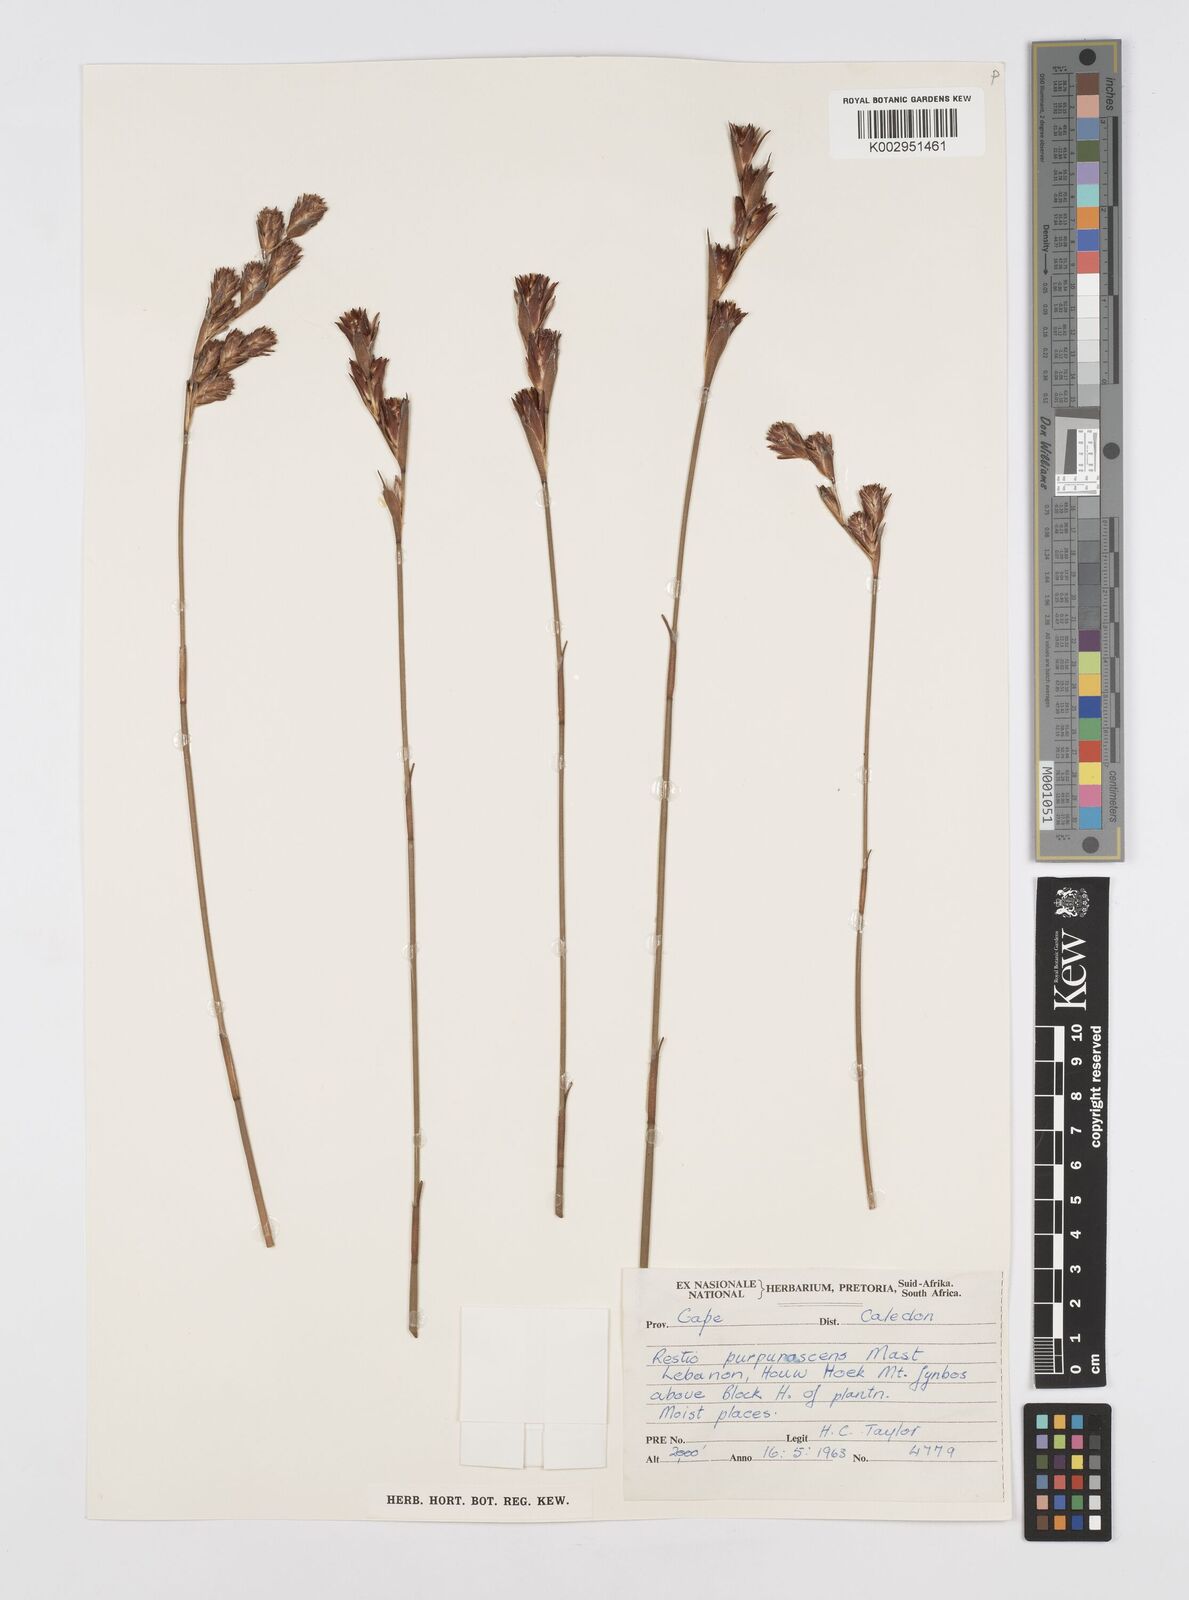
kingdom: Plantae
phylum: Tracheophyta
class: Liliopsida
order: Poales
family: Restionaceae
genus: Restio
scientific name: Restio purpurascens
